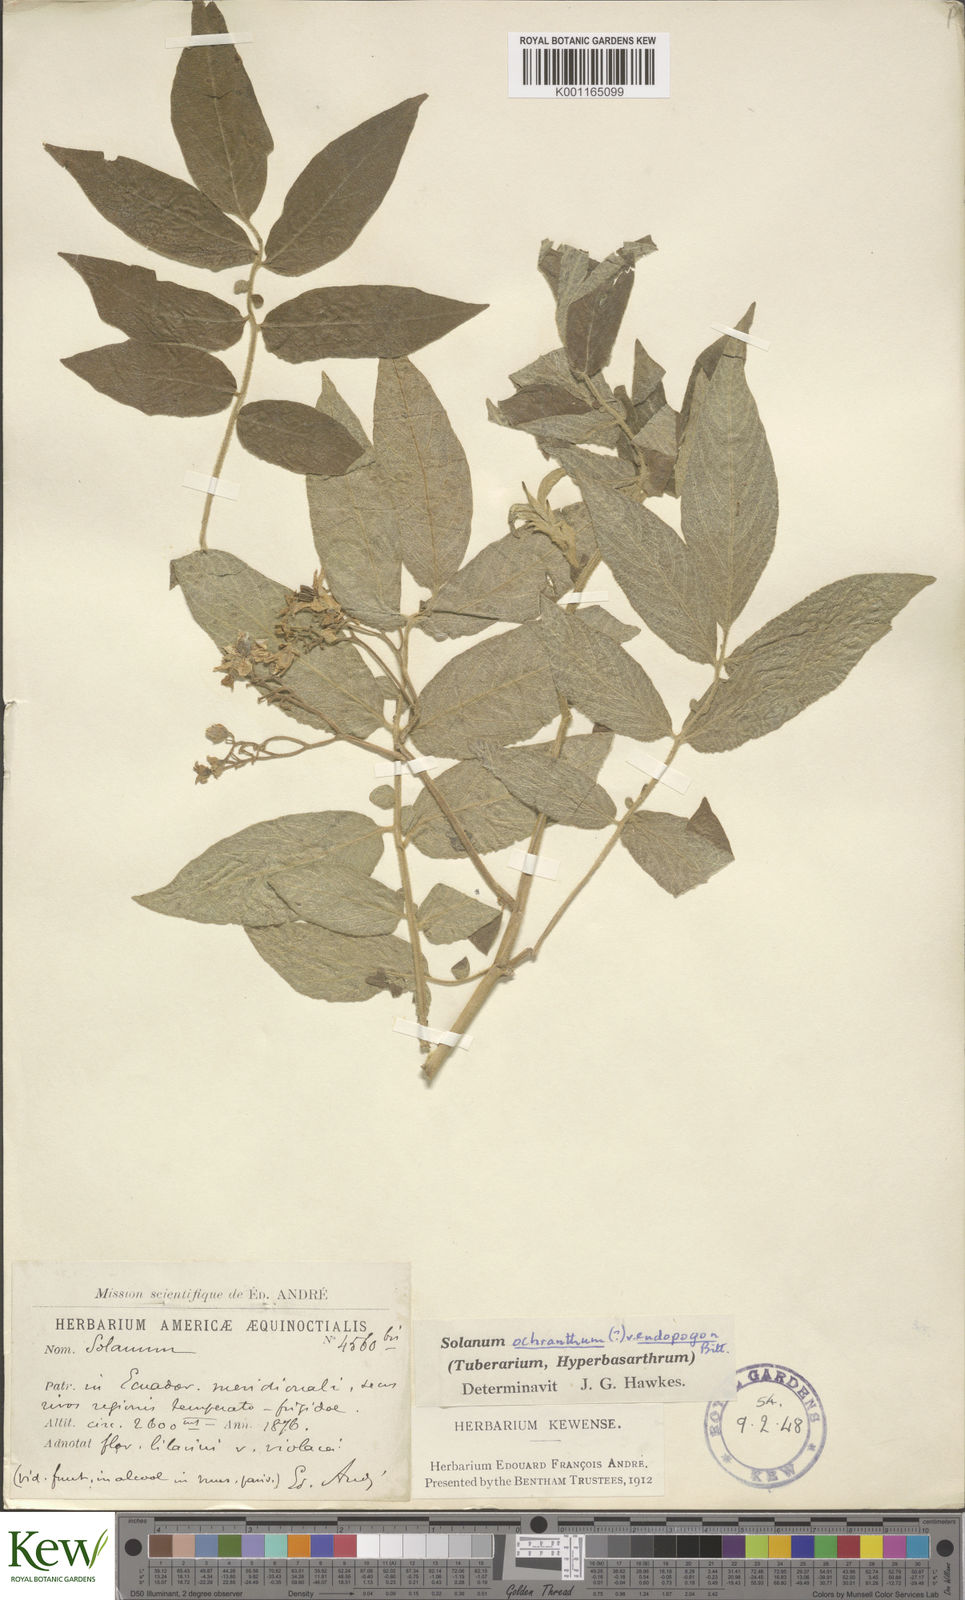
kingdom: Plantae
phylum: Tracheophyta
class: Magnoliopsida
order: Solanales
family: Solanaceae
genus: Solanum
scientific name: Solanum ochranthum
